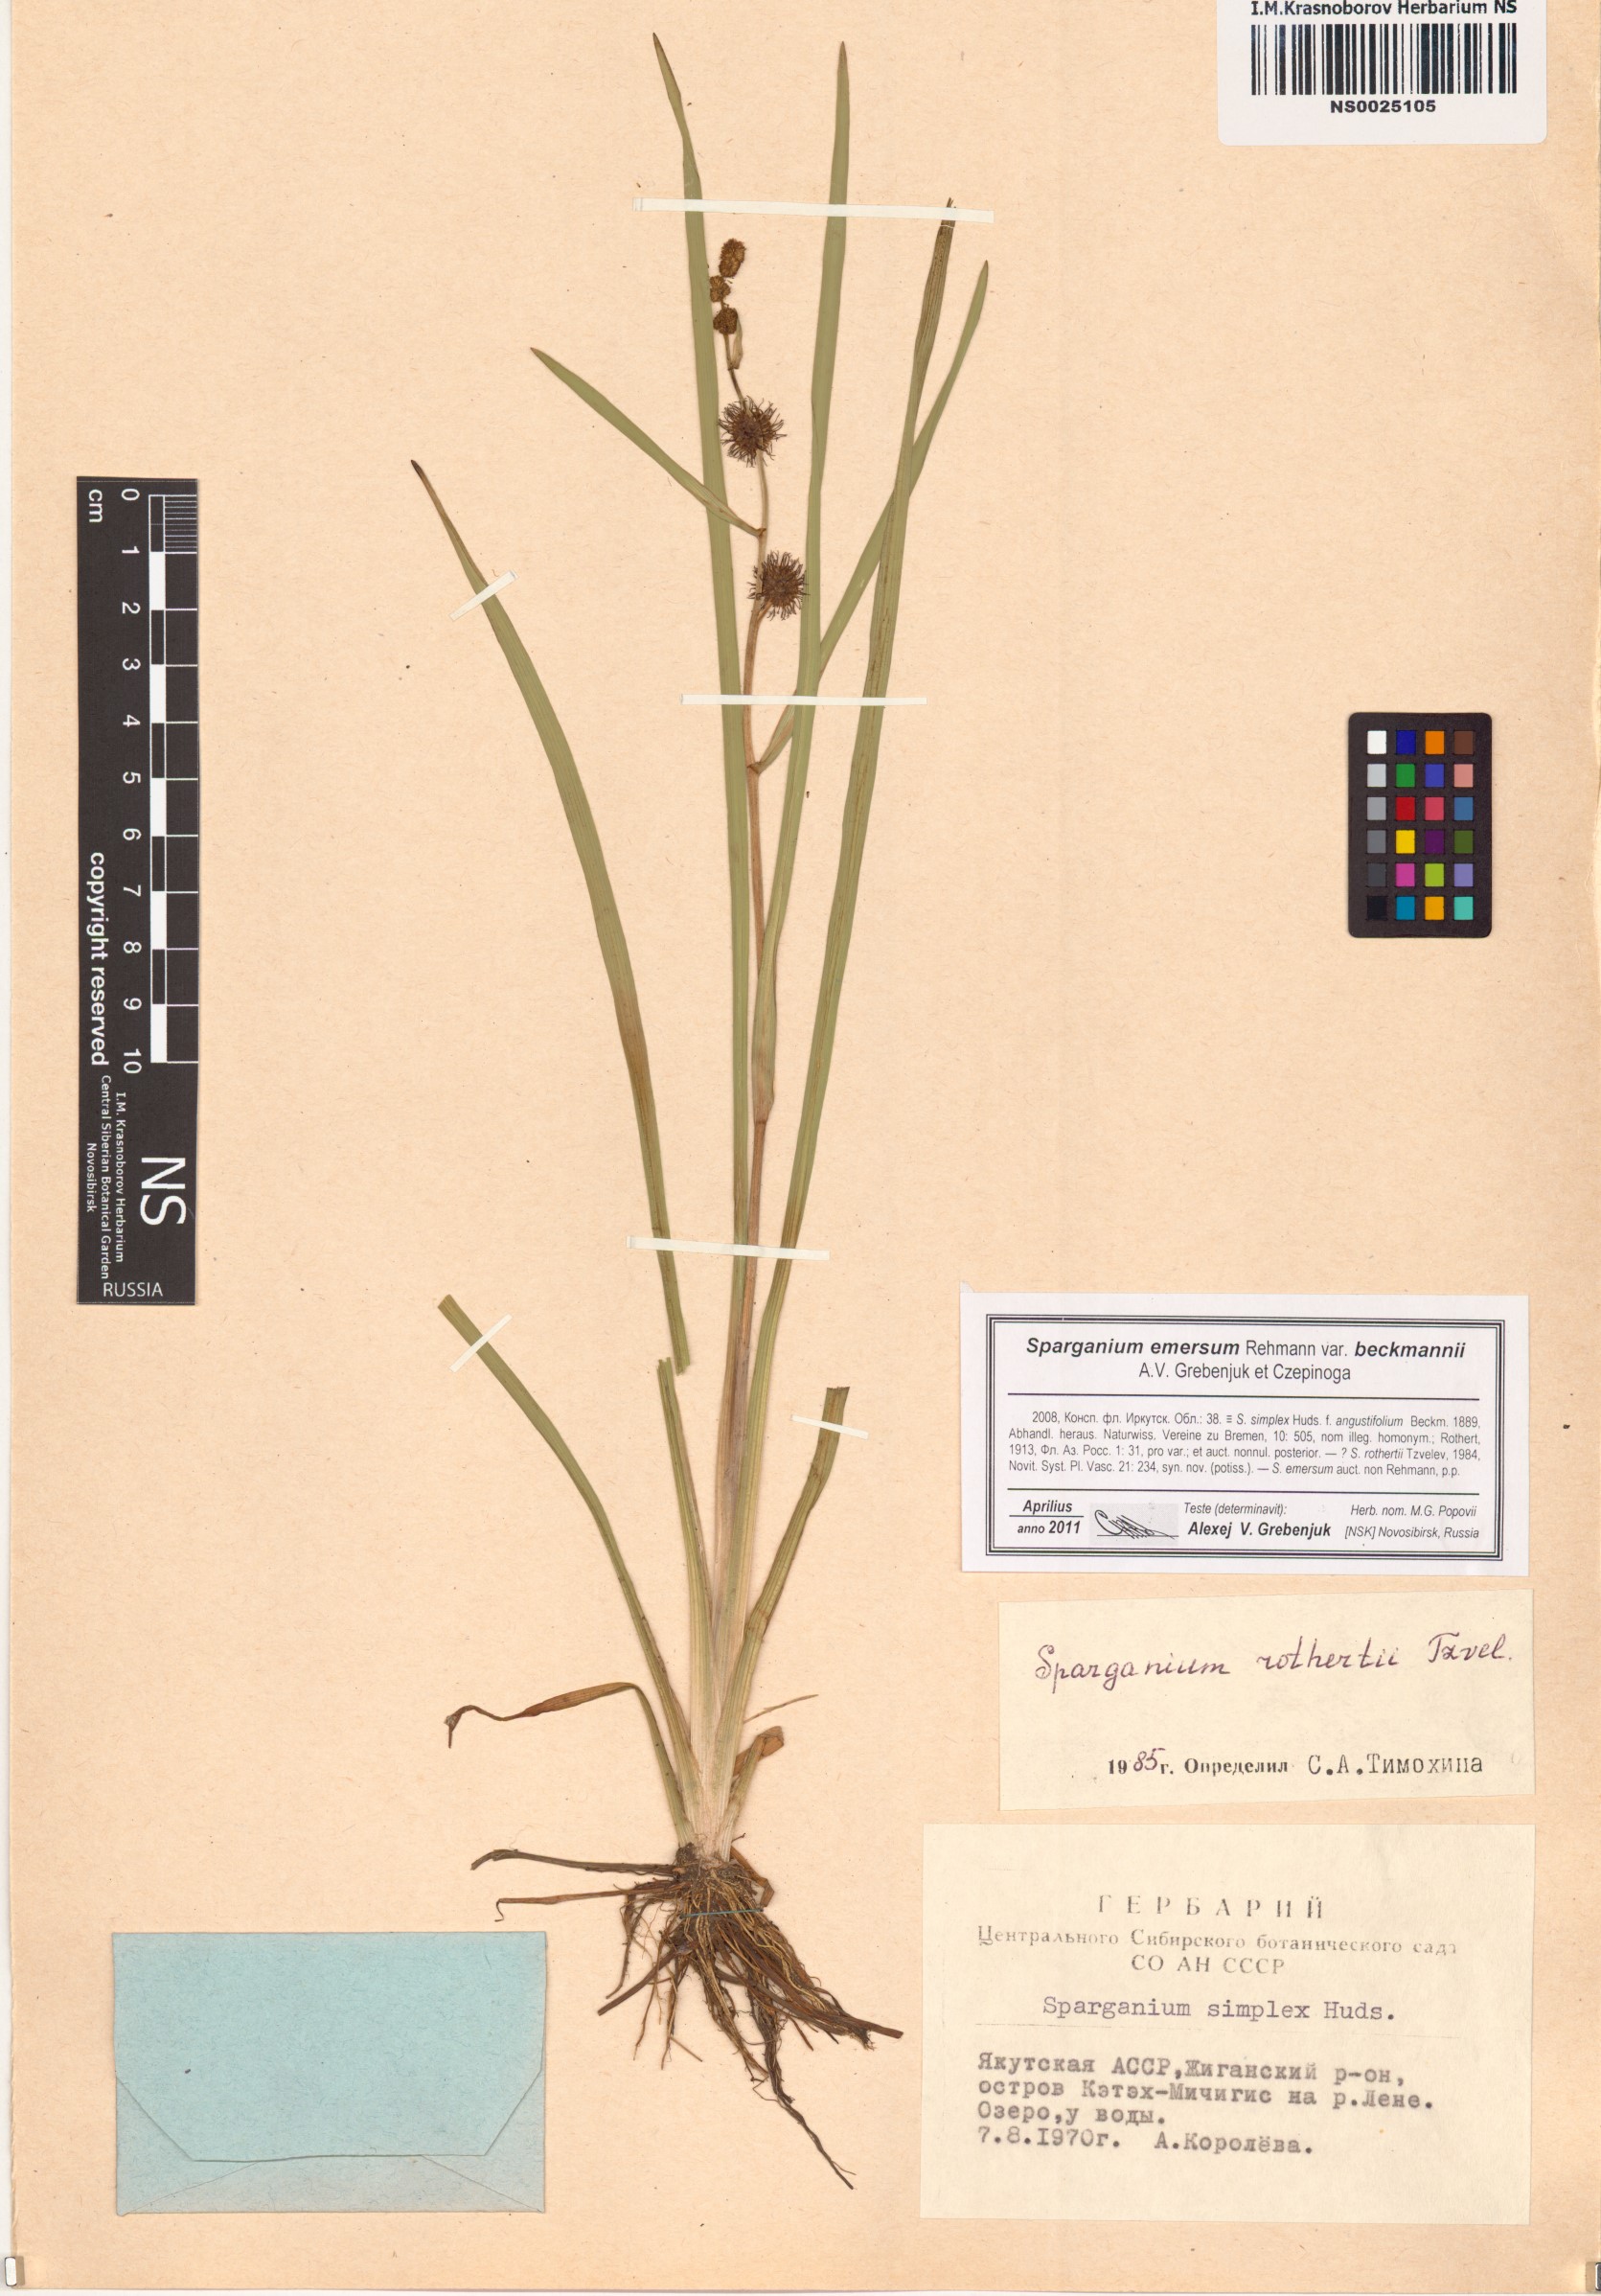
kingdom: Plantae
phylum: Tracheophyta
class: Liliopsida
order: Poales
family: Typhaceae
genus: Sparganium
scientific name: Sparganium emersum
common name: Unbranched bur-reed
